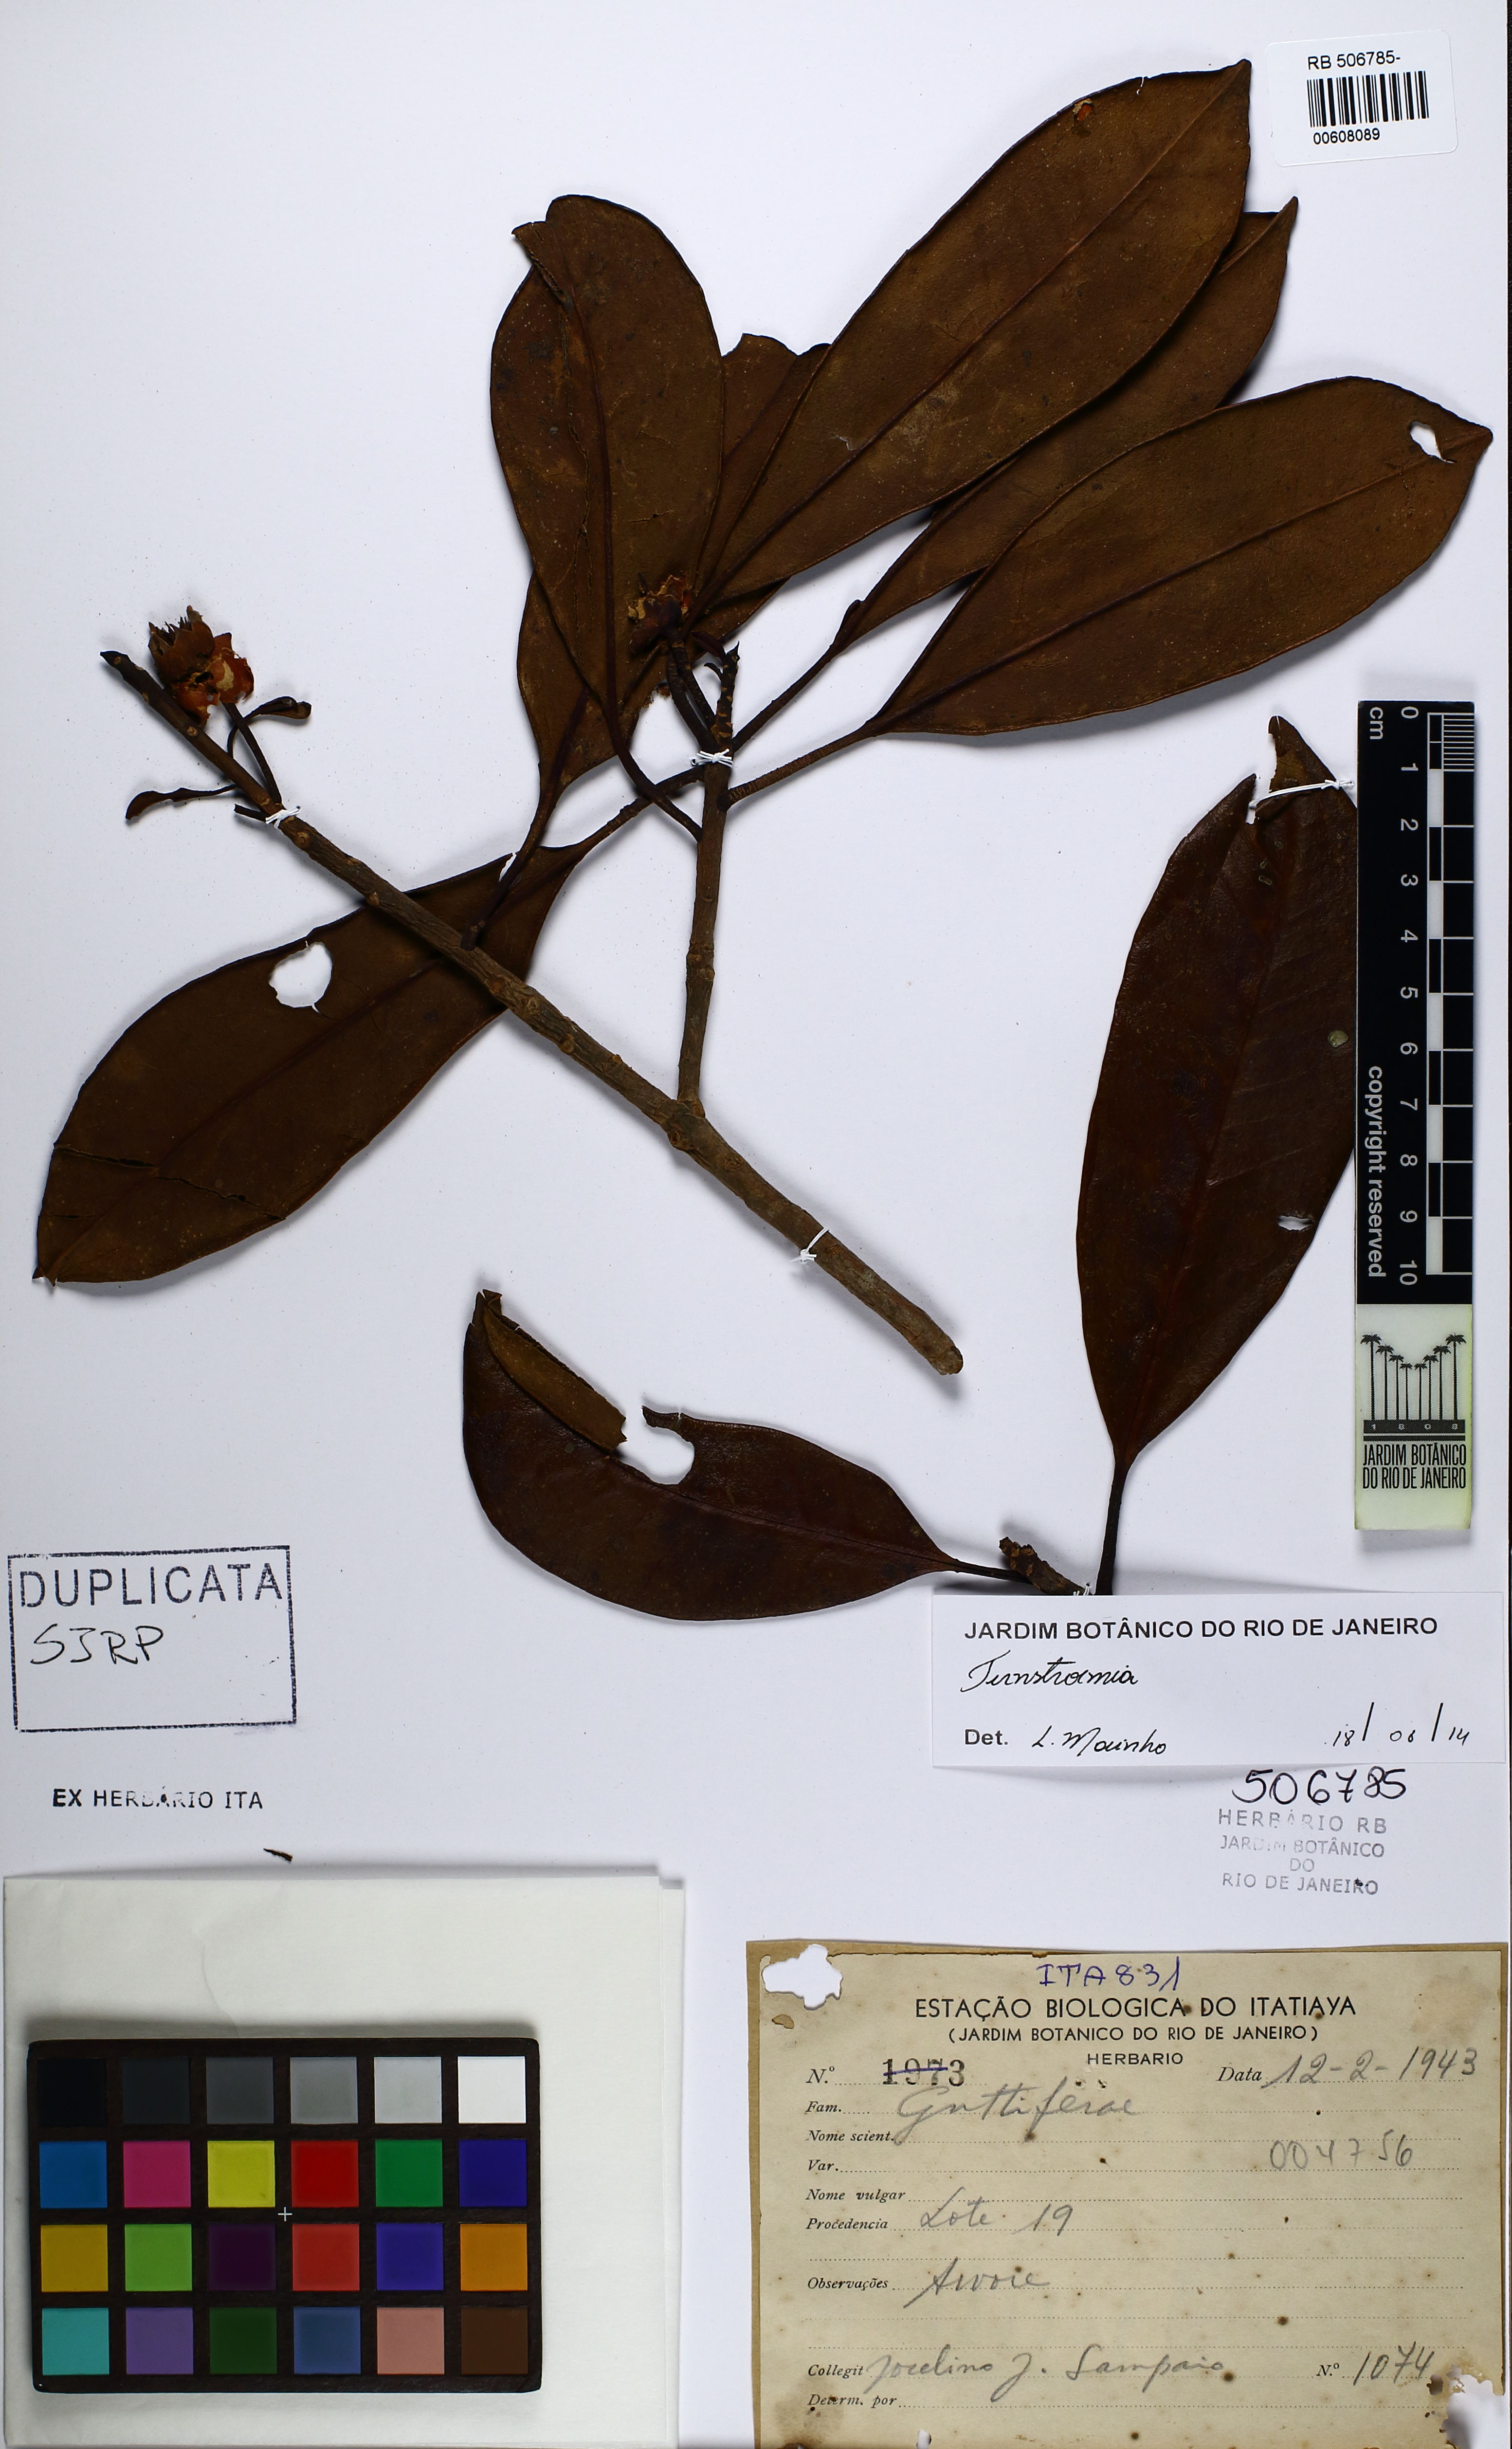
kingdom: Plantae
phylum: Tracheophyta
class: Magnoliopsida
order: Ericales
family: Pentaphylacaceae
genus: Ternstroemia
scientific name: Ternstroemia brasiliensis
